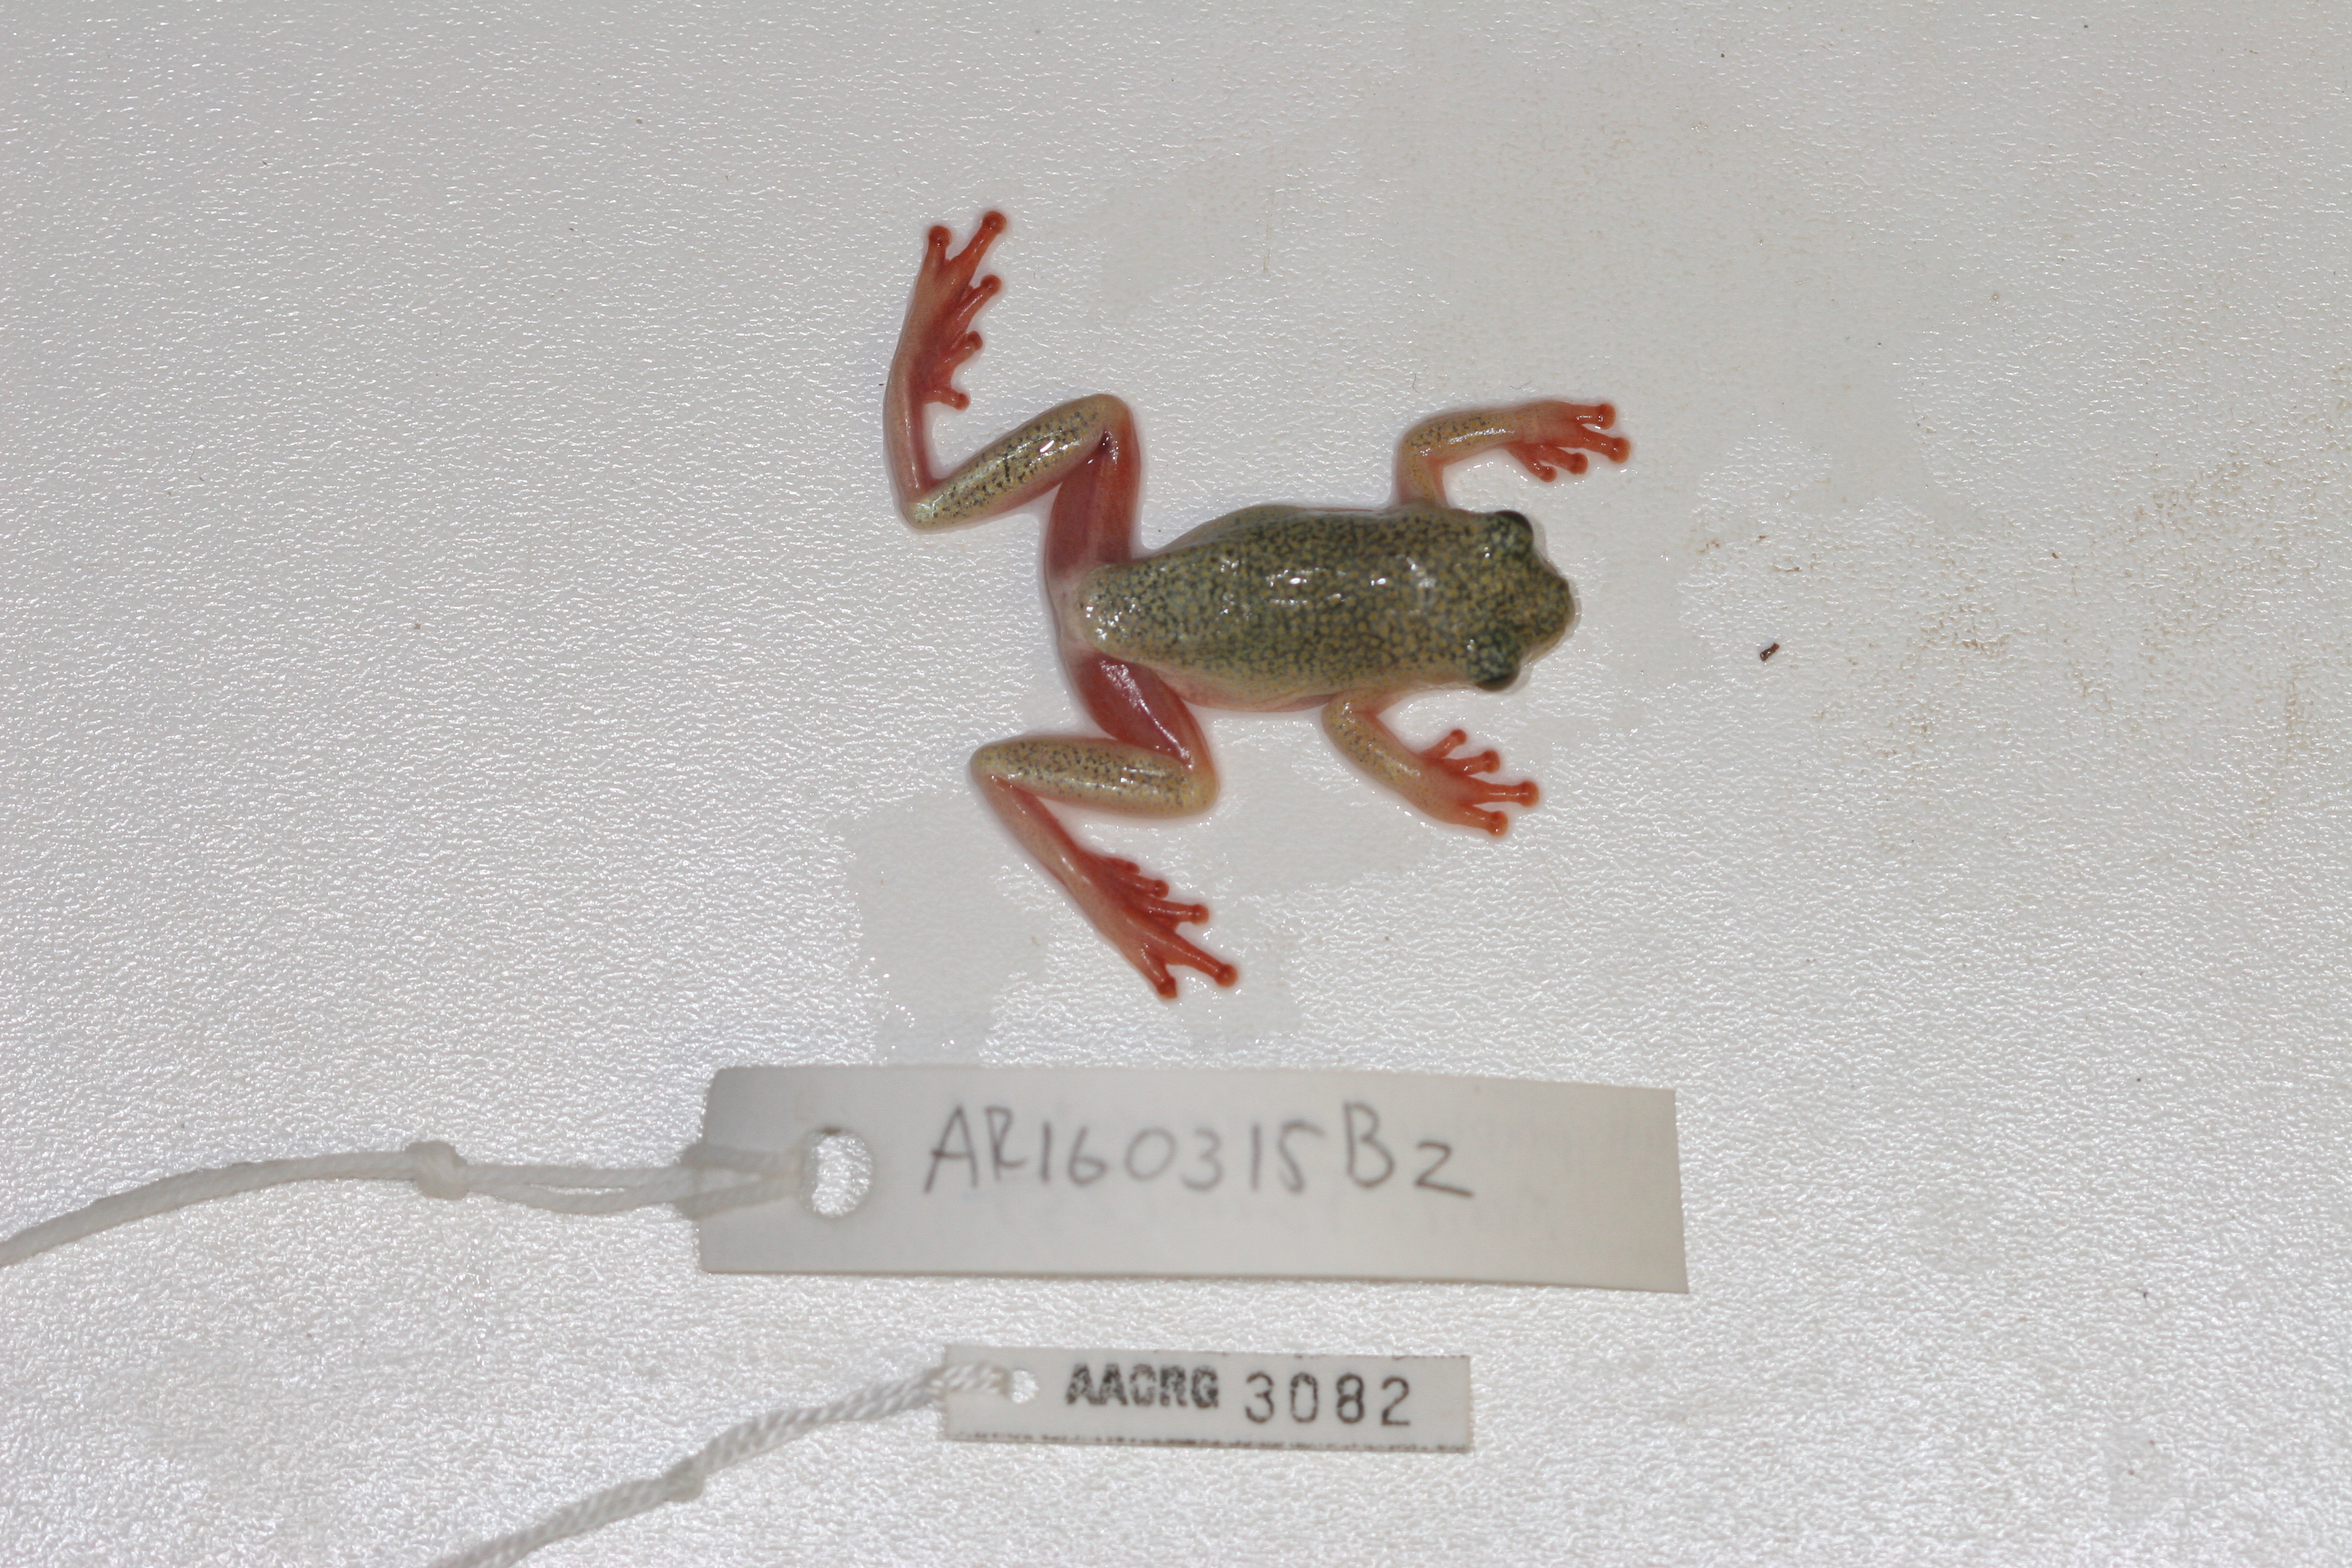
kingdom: Animalia
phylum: Chordata
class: Amphibia
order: Anura
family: Hyperoliidae
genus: Hyperolius
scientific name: Hyperolius marmoratus
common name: Painted reed frog
